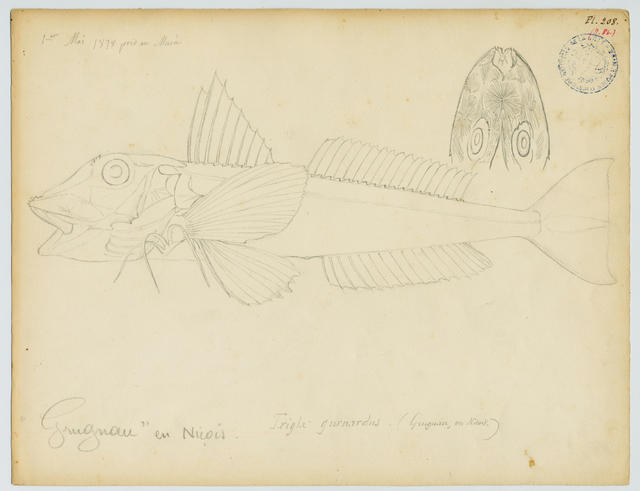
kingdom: Animalia
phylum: Chordata
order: Scorpaeniformes
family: Triglidae
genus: Eutrigla
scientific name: Eutrigla gurnardus
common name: Grey gurnard
